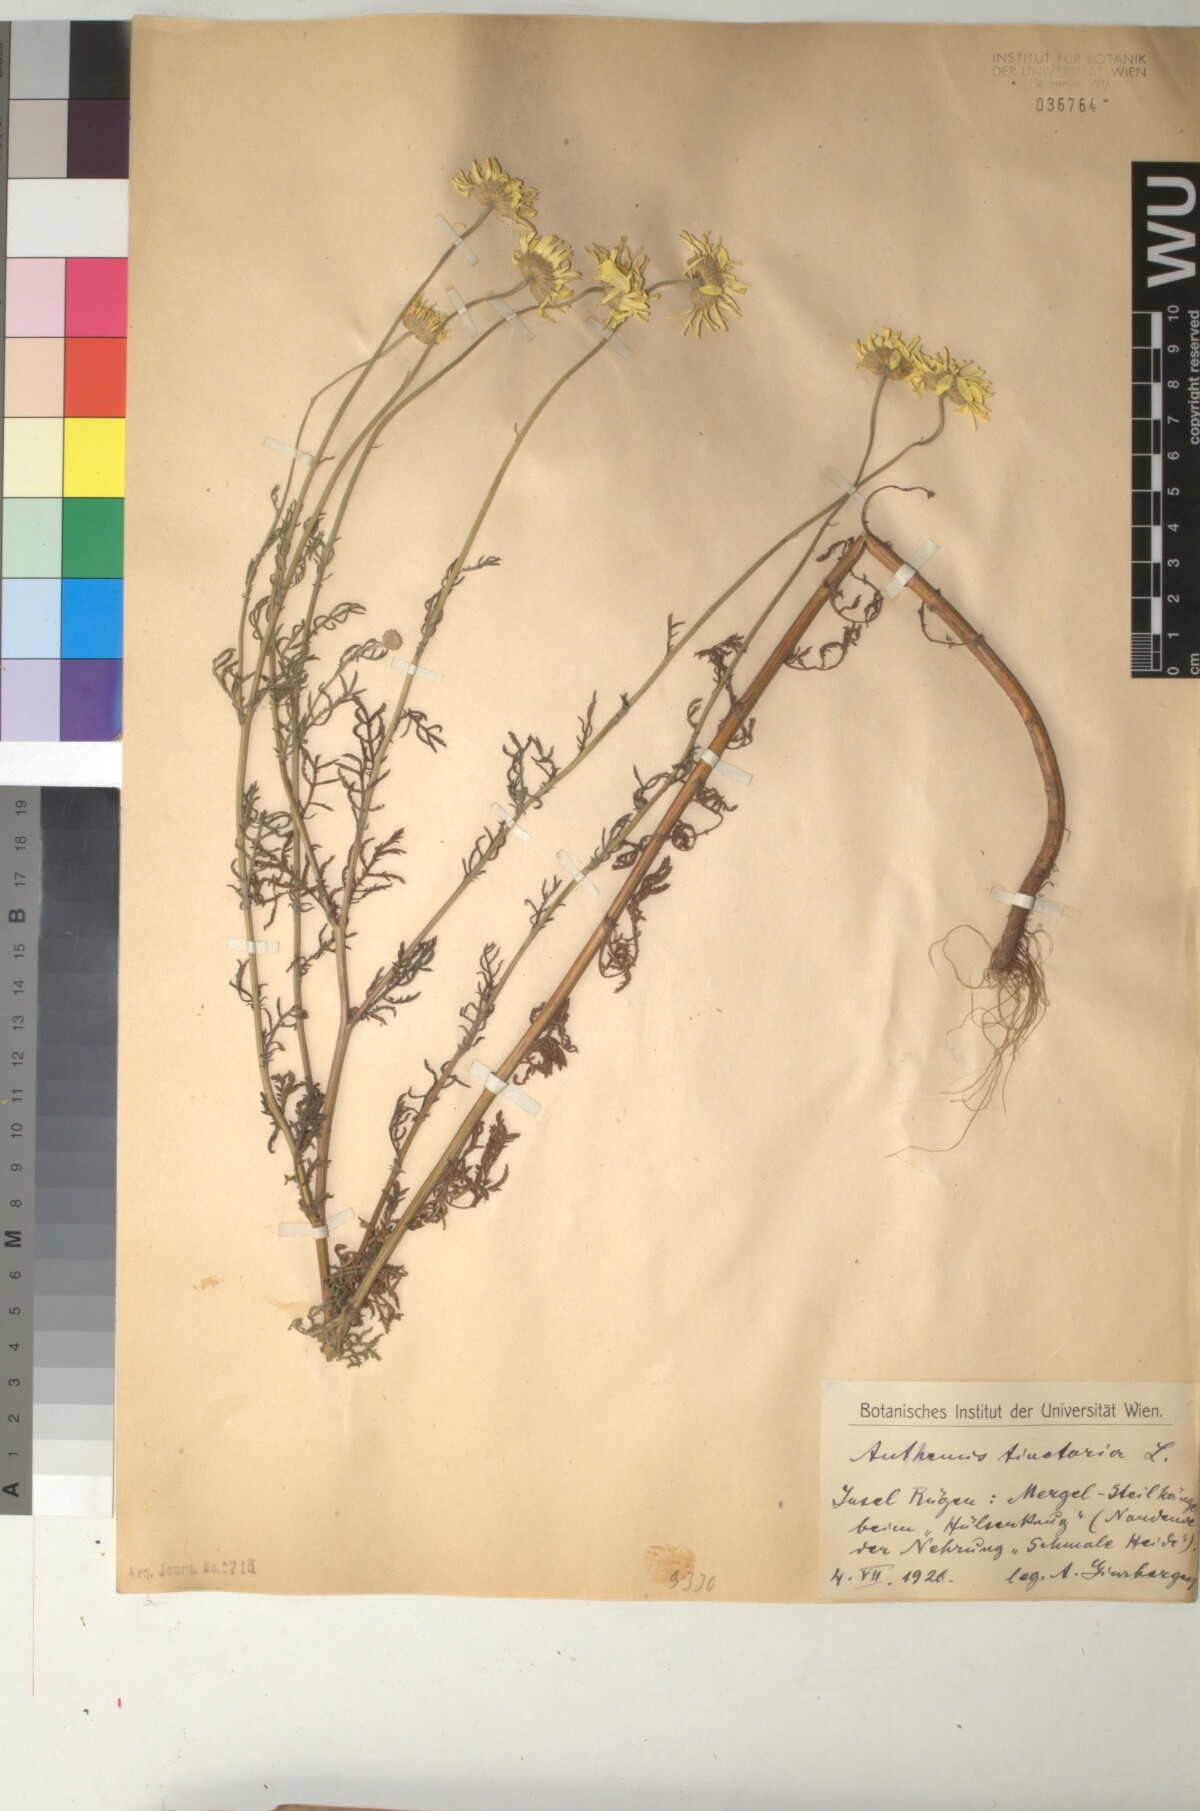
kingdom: Plantae
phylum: Tracheophyta
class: Magnoliopsida
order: Asterales
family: Asteraceae
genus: Cota
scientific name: Cota tinctoria
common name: Golden chamomile
